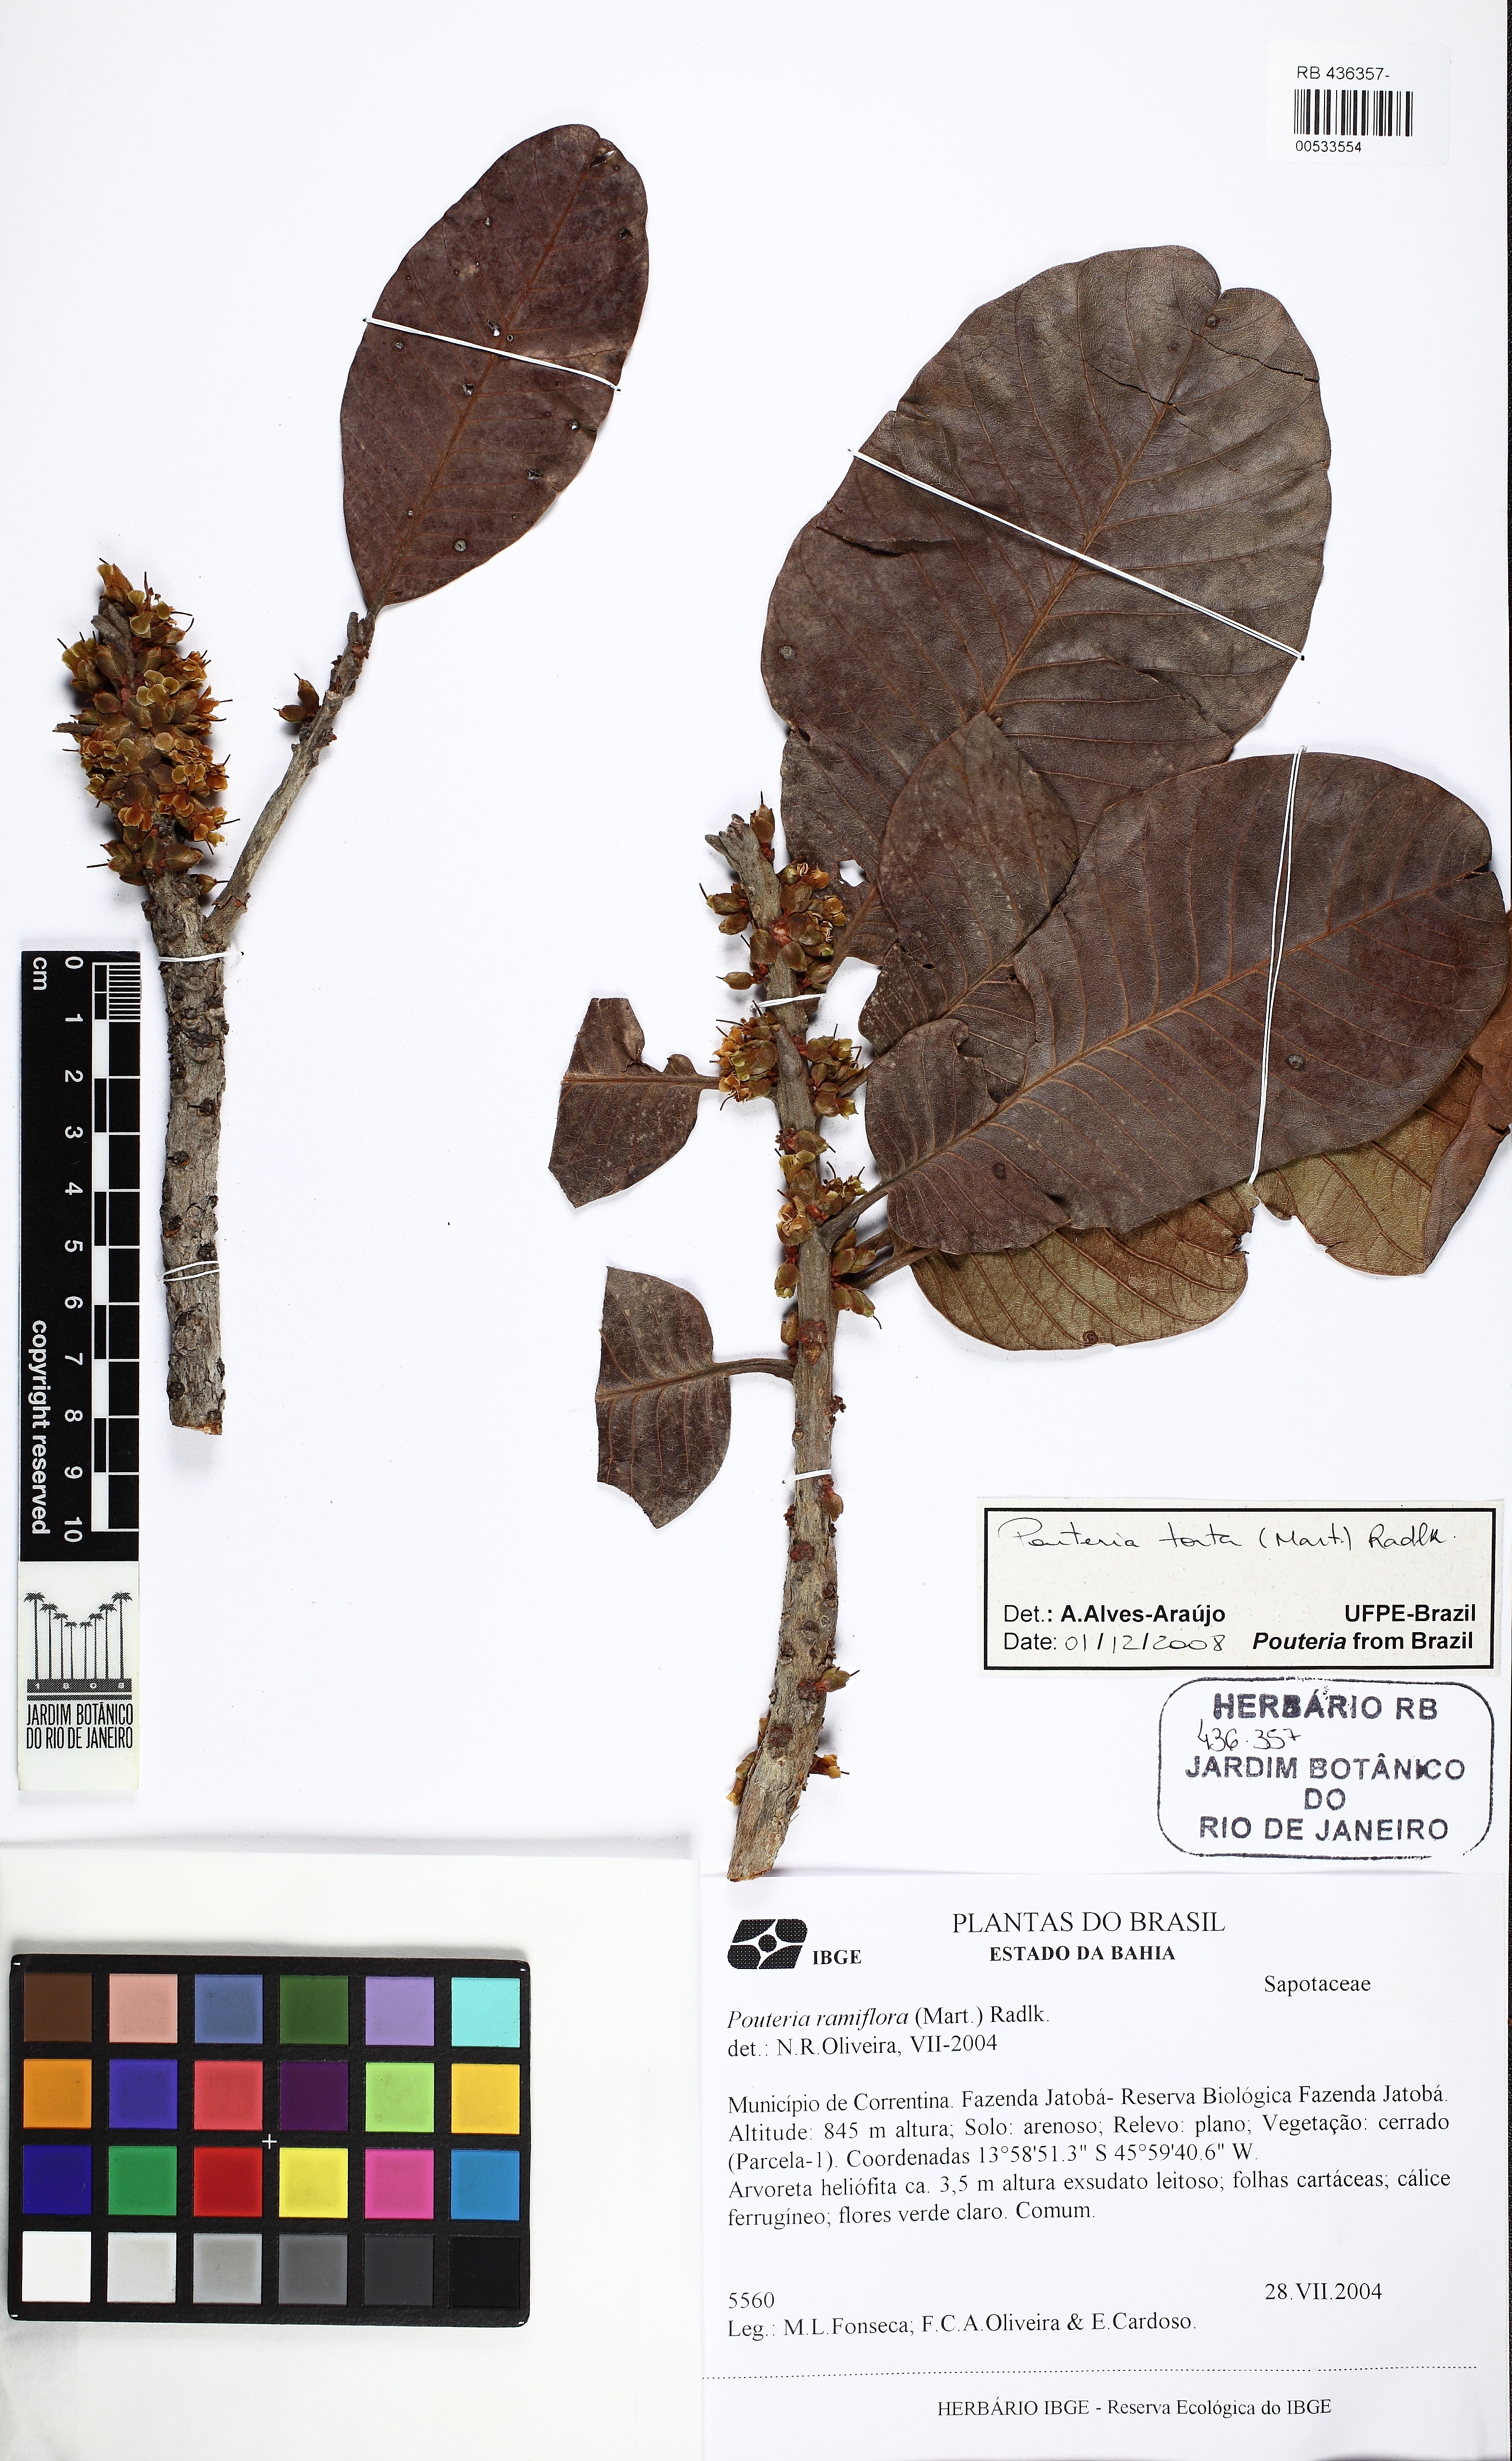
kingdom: Plantae
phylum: Tracheophyta
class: Magnoliopsida
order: Ericales
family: Sapotaceae
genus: Pouteria
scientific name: Pouteria torta
